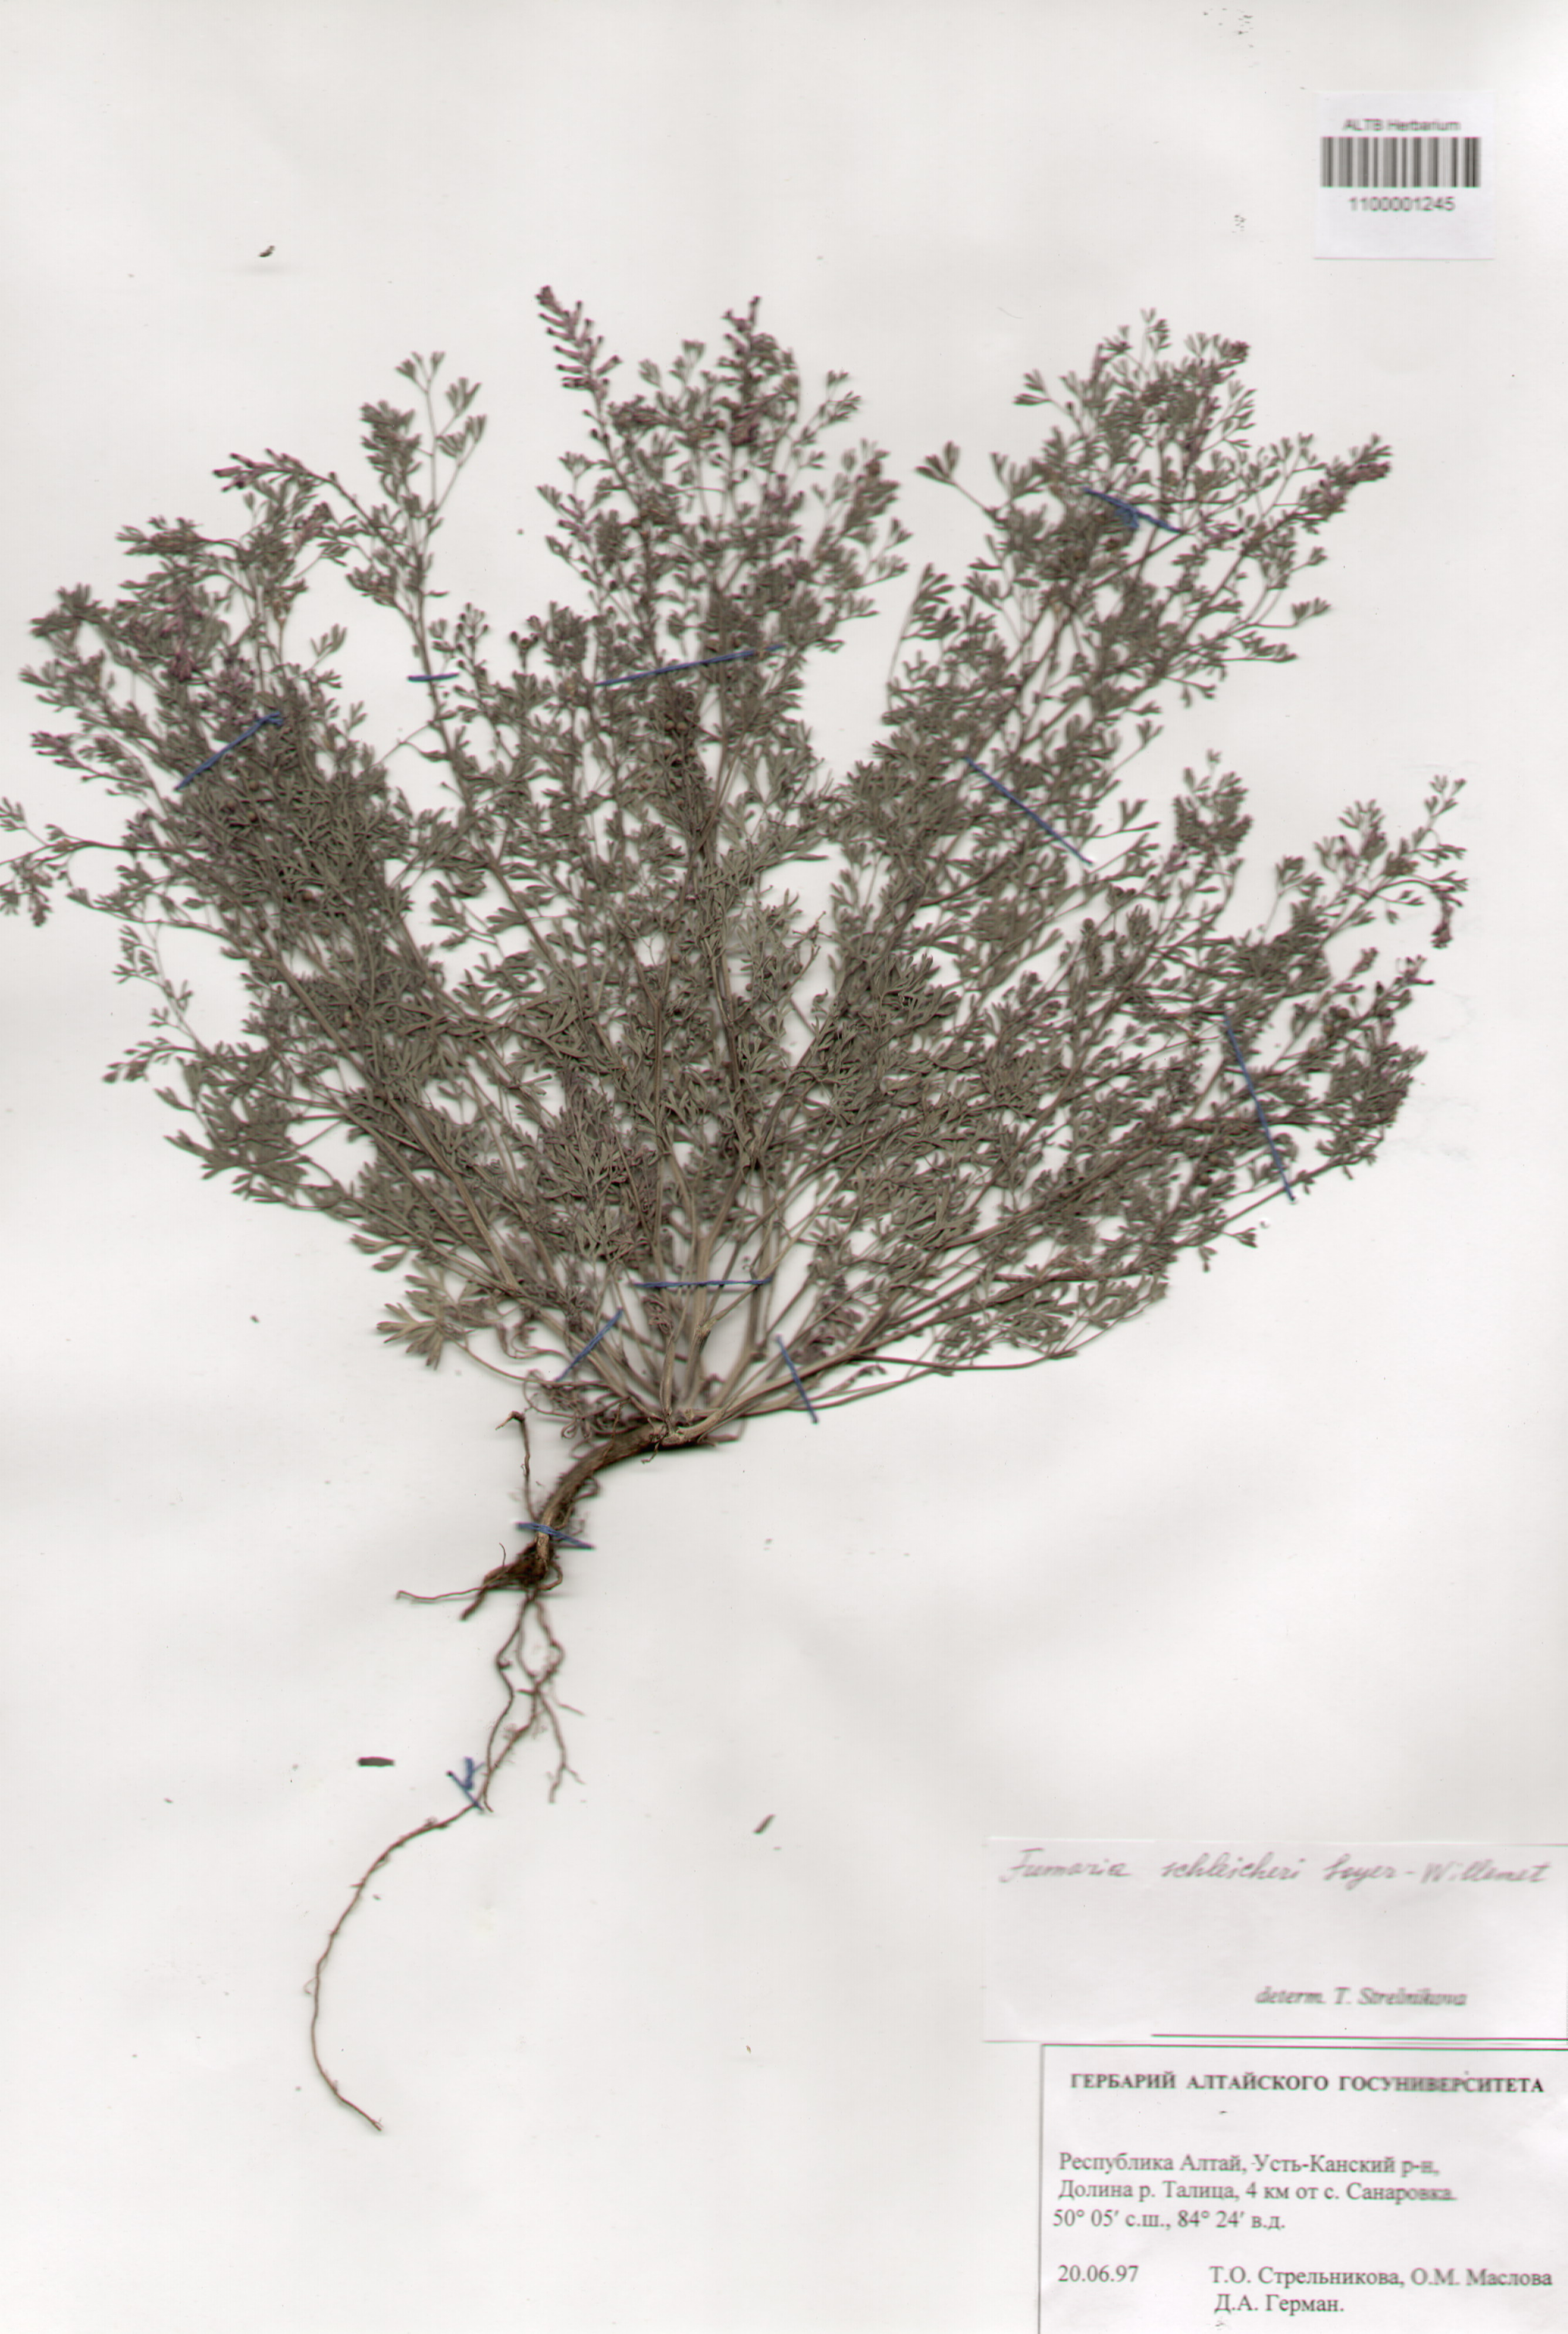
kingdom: Plantae
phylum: Tracheophyta
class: Magnoliopsida
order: Ranunculales
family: Papaveraceae
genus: Fumaria
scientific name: Fumaria schleicheri
